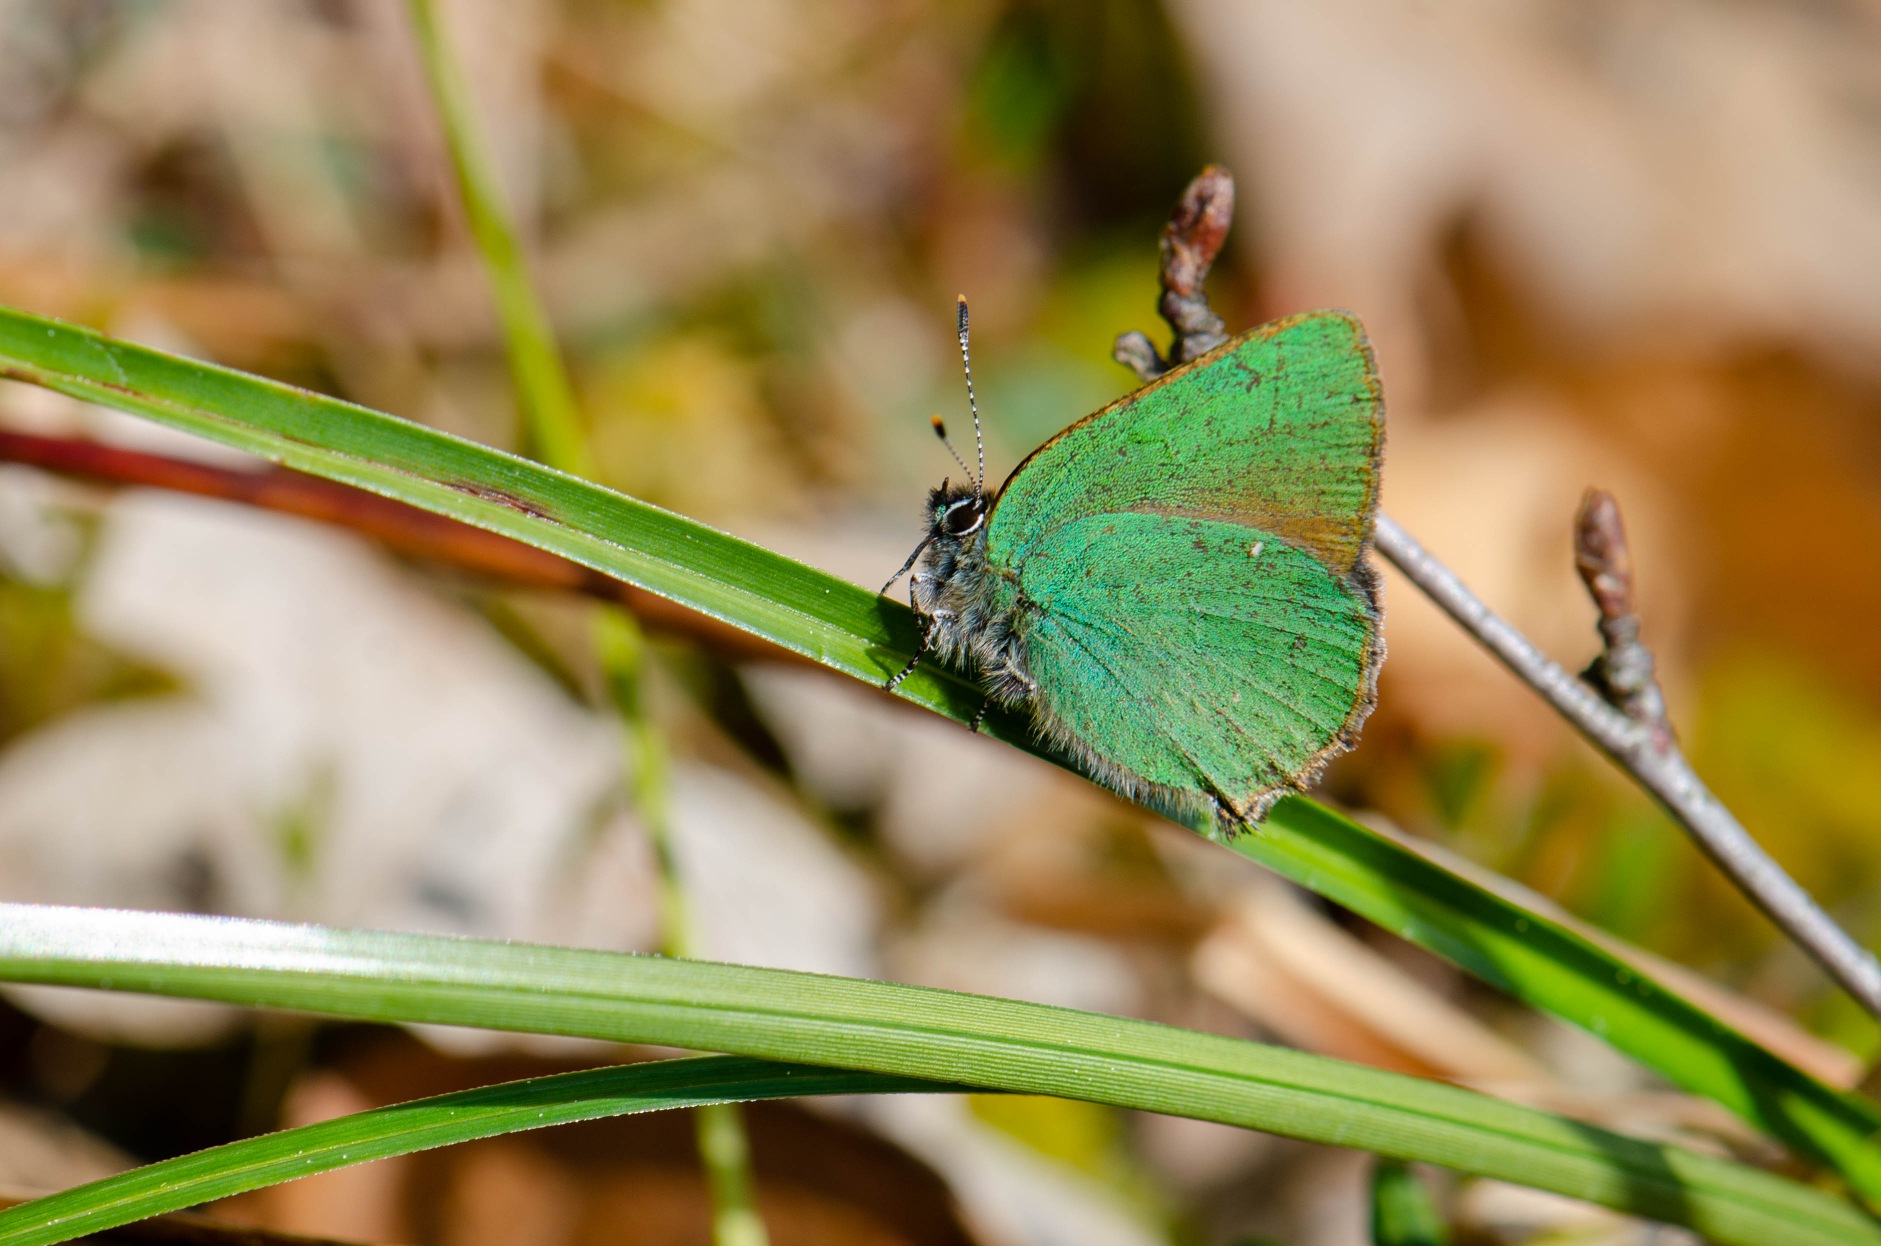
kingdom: Animalia
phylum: Arthropoda
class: Insecta
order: Lepidoptera
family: Lycaenidae
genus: Callophrys
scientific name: Callophrys rubi
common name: Grøn busksommerfugl
